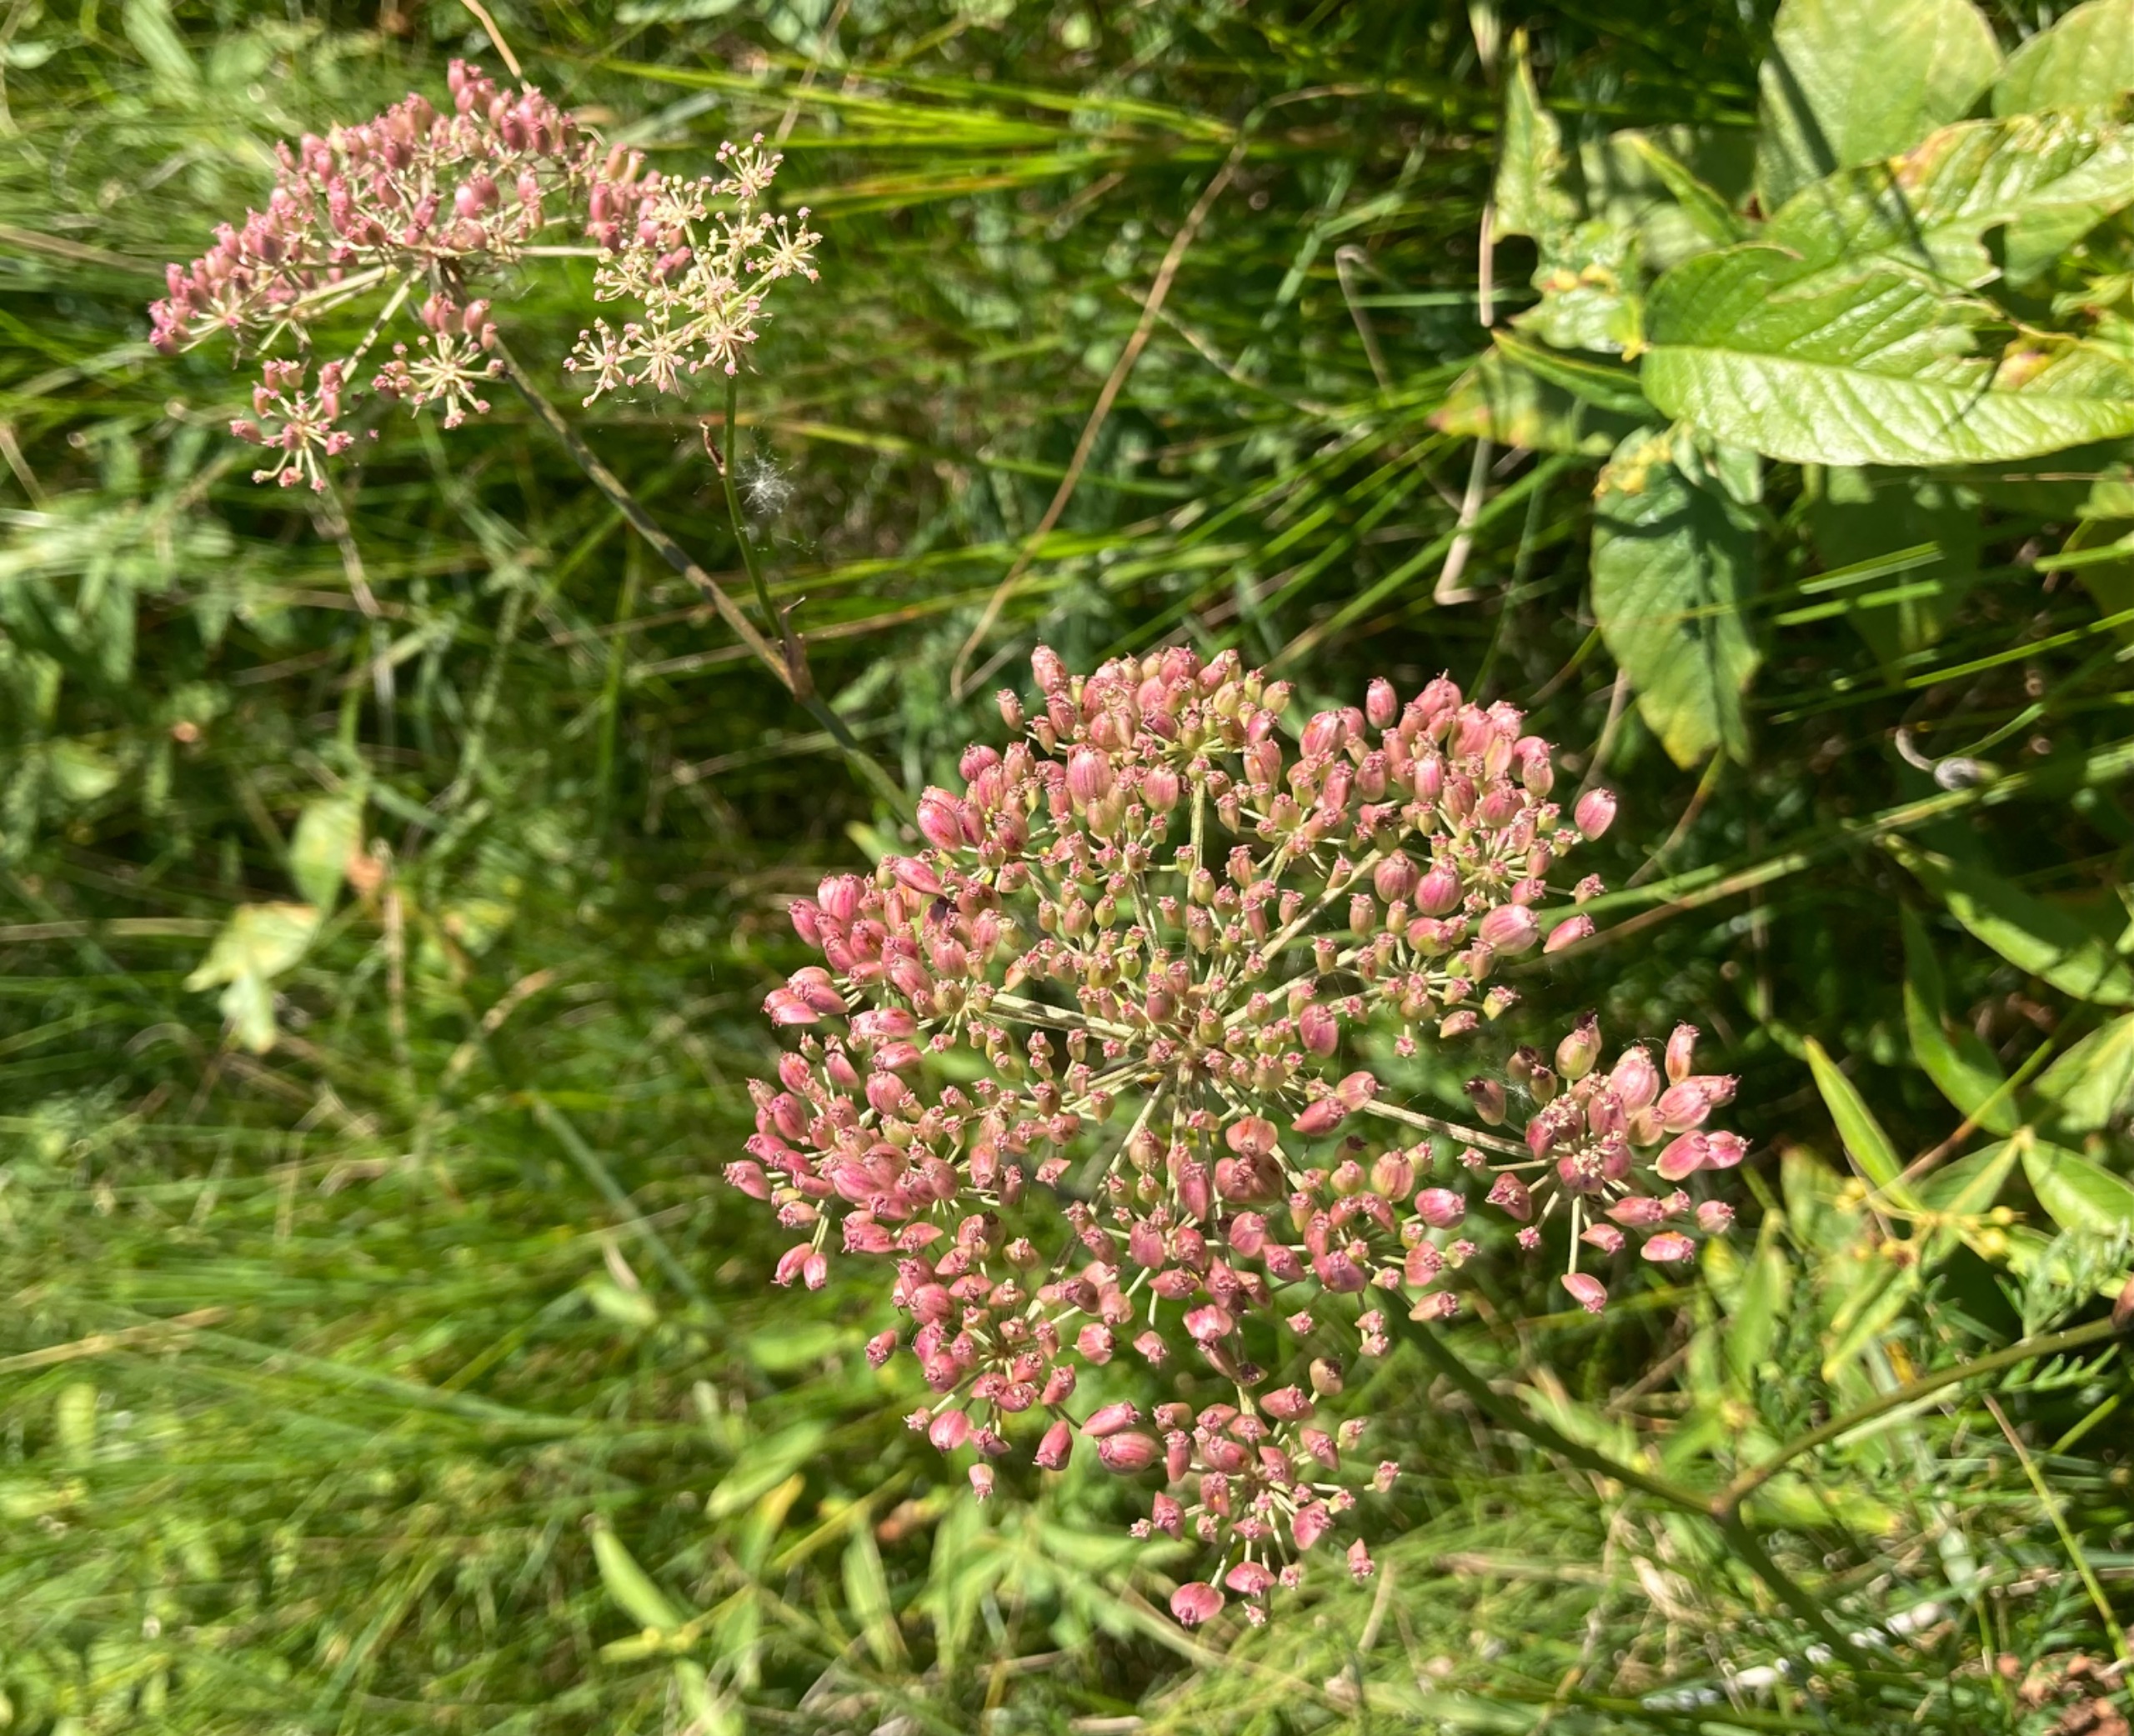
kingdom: Plantae
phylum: Tracheophyta
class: Magnoliopsida
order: Apiales
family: Apiaceae
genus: Thysselinum
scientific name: Thysselinum palustre
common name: Kær-svovlrod
